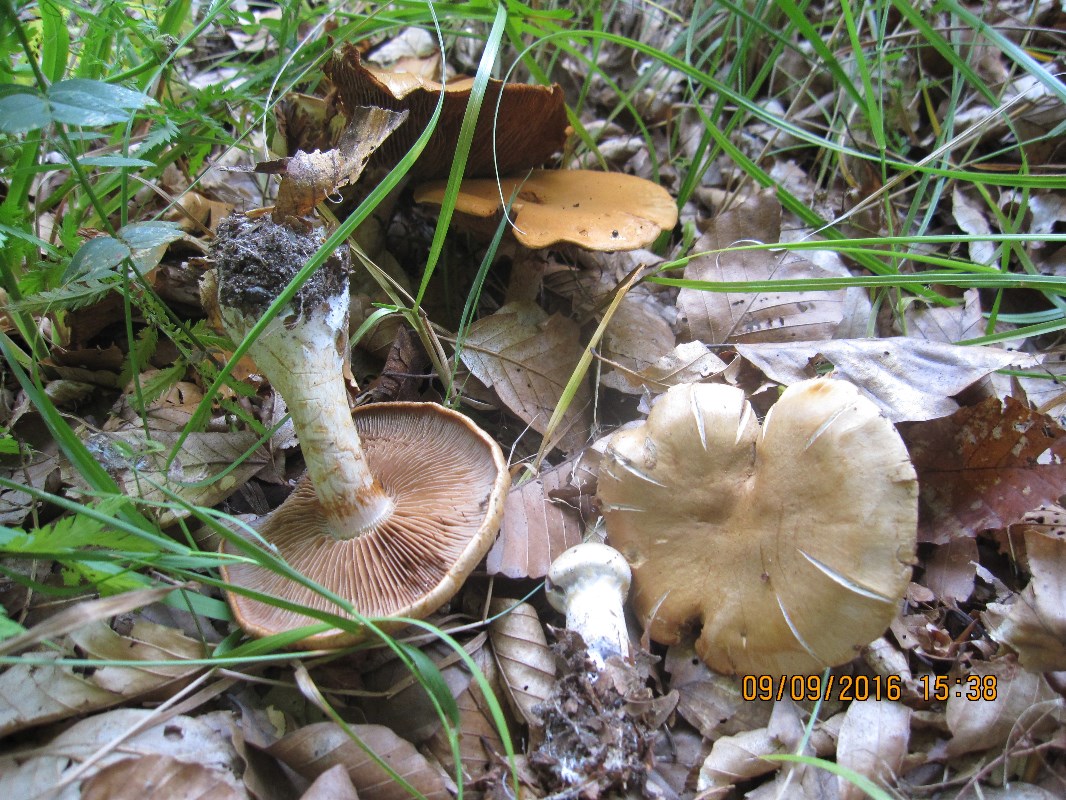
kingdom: Fungi
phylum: Basidiomycota
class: Agaricomycetes
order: Agaricales
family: Cortinariaceae
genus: Cortinarius
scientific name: Cortinarius anomalus
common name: Variable webcap
